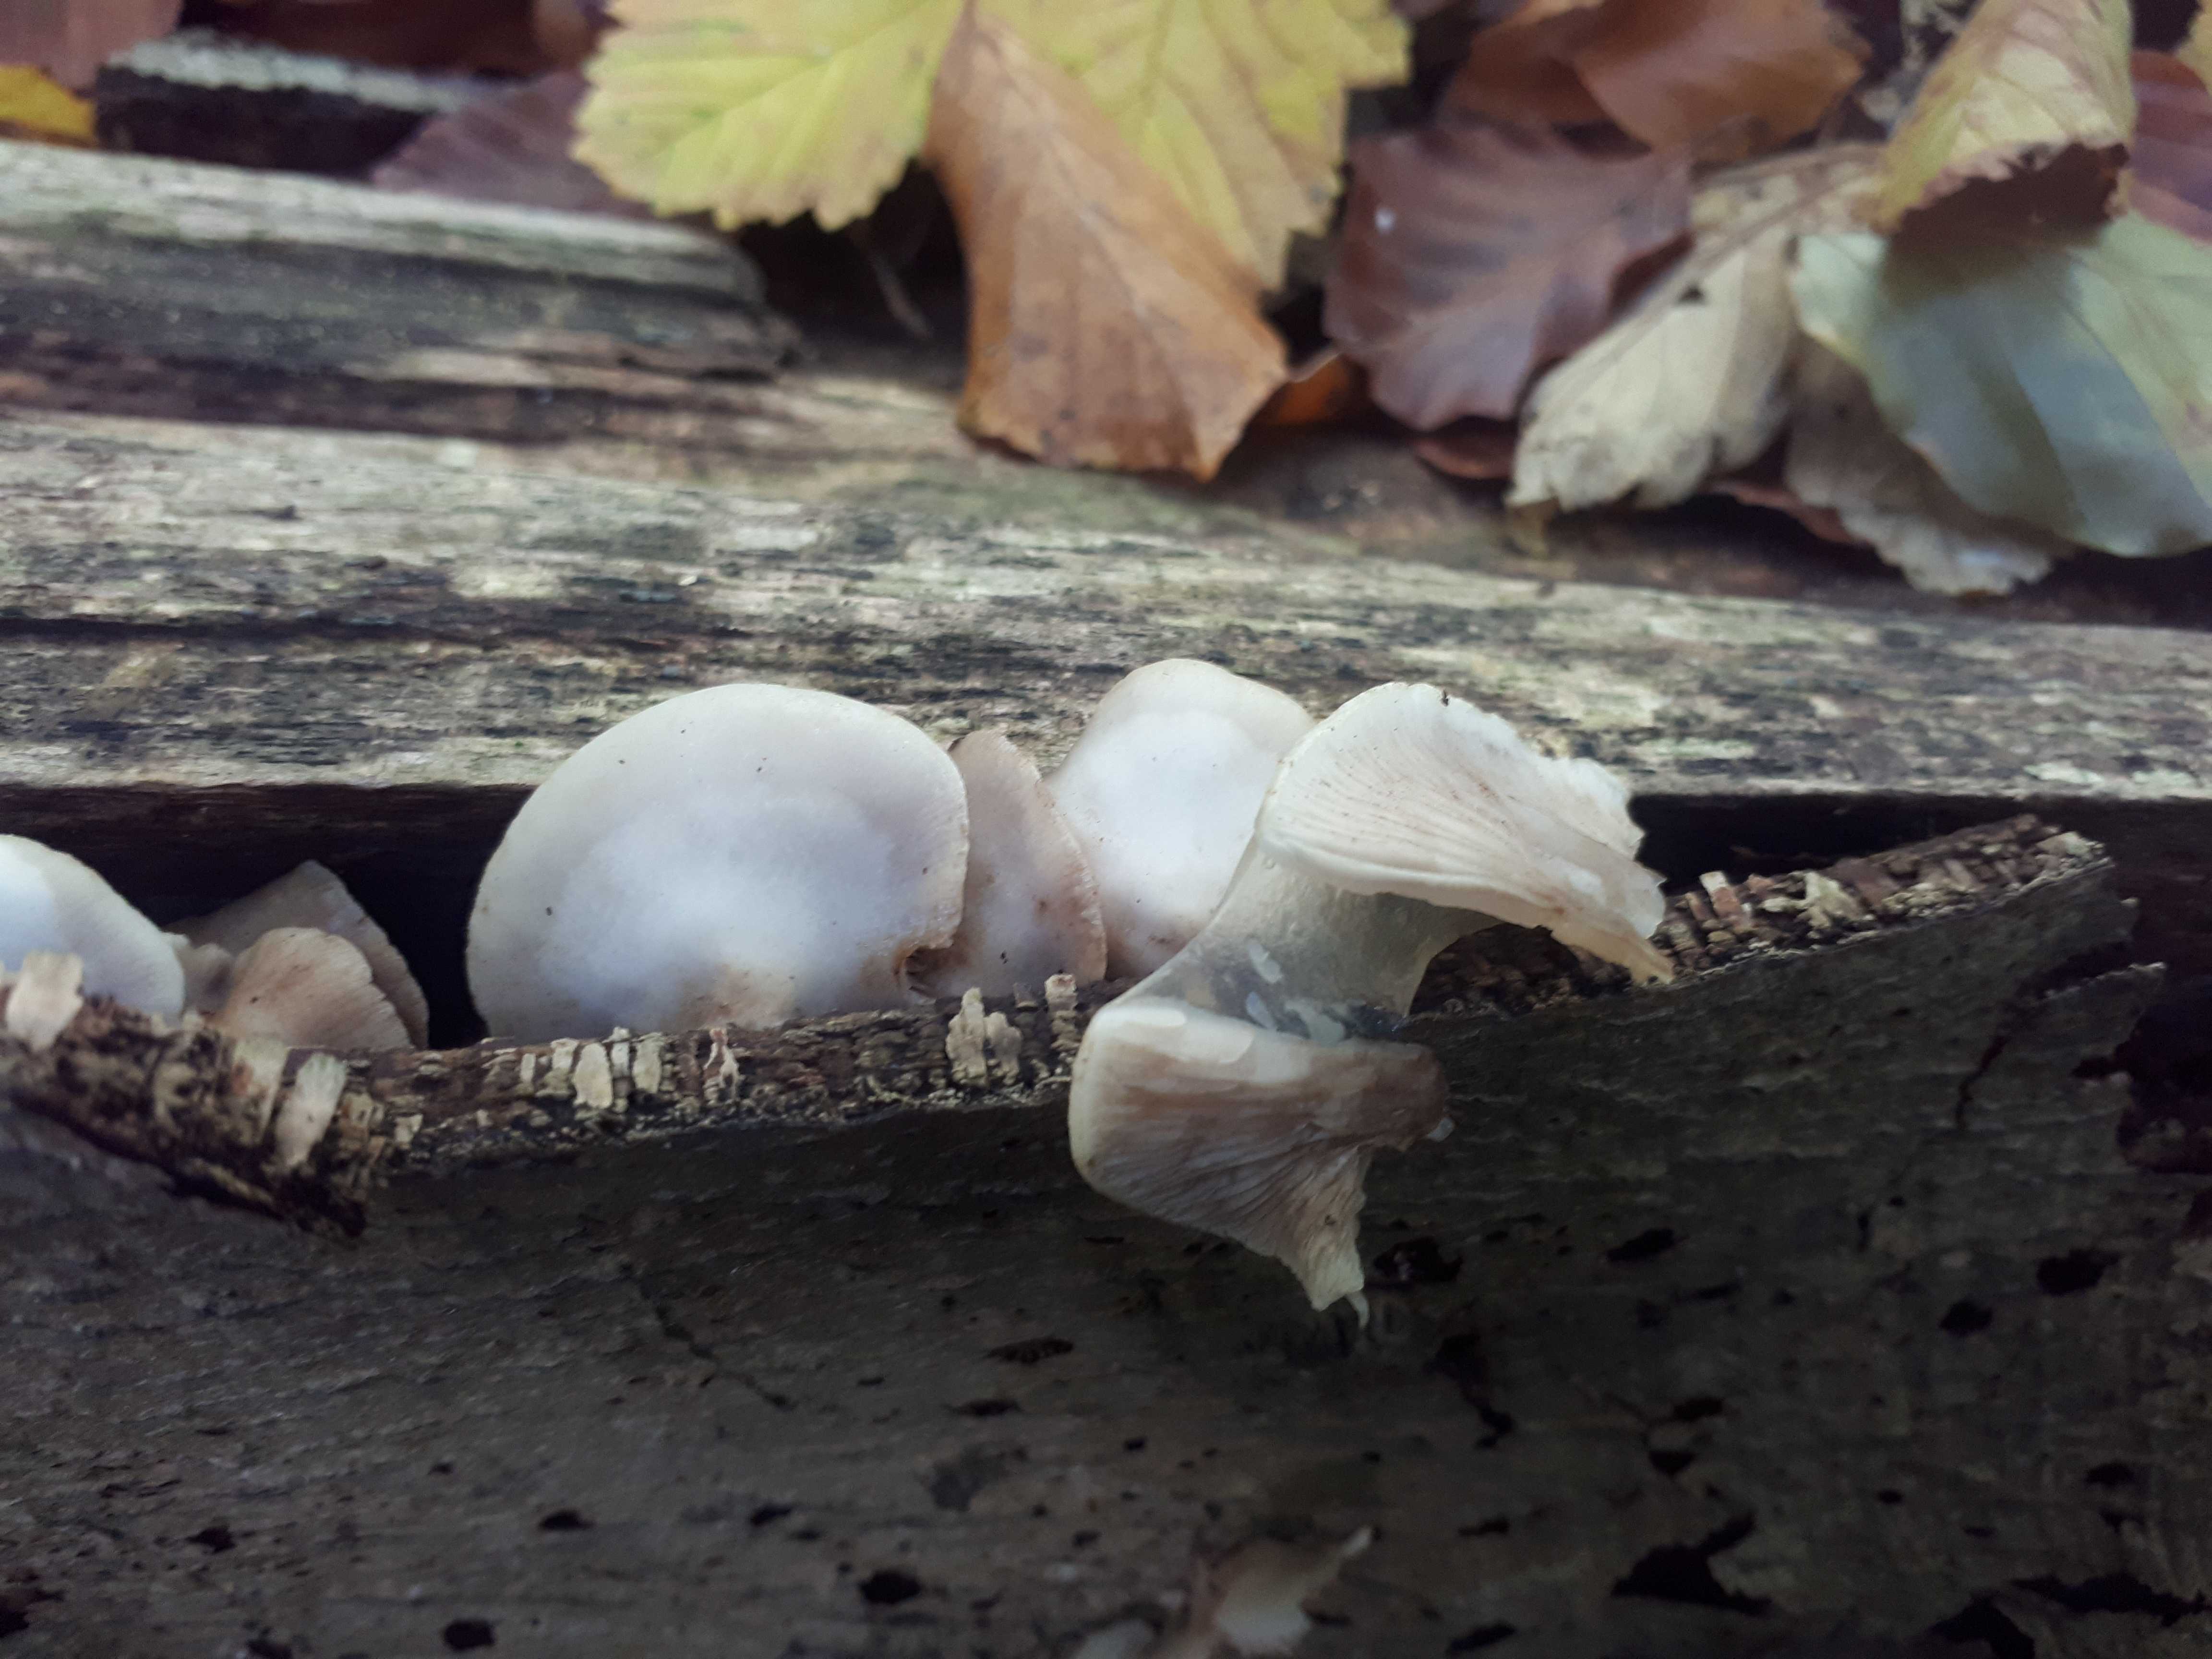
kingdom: Fungi
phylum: Basidiomycota
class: Agaricomycetes
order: Agaricales
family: Crepidotaceae
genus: Crepidotus
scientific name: Crepidotus mollis
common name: blød muslingesvamp
